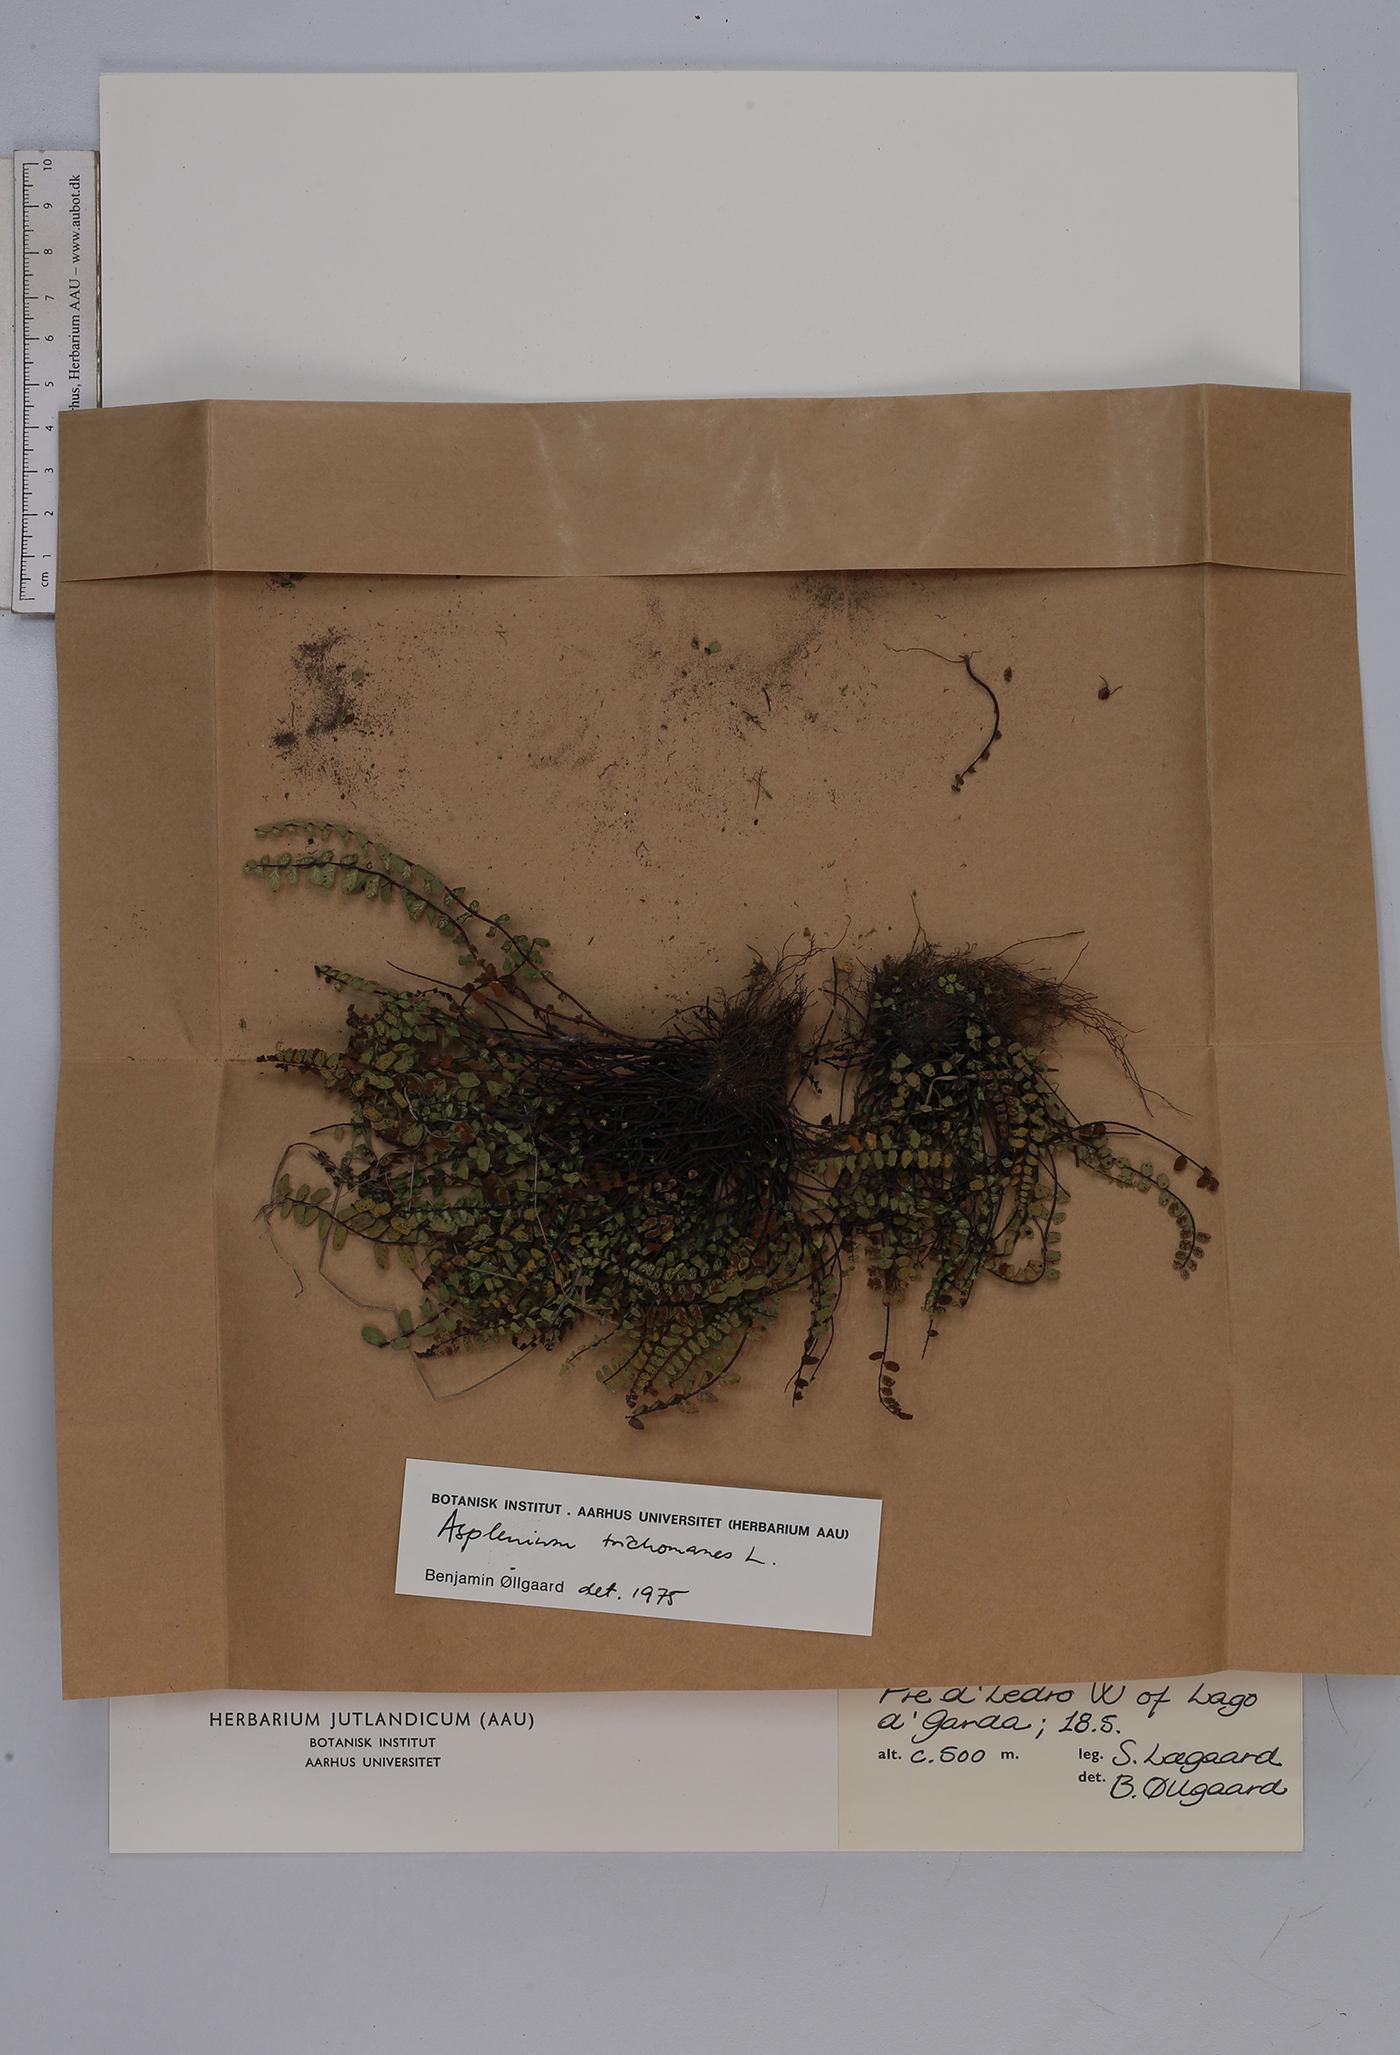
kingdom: Plantae
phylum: Tracheophyta
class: Polypodiopsida
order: Polypodiales
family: Aspleniaceae
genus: Asplenium
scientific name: Asplenium trichomanes
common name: Maidenhair spleenwort
